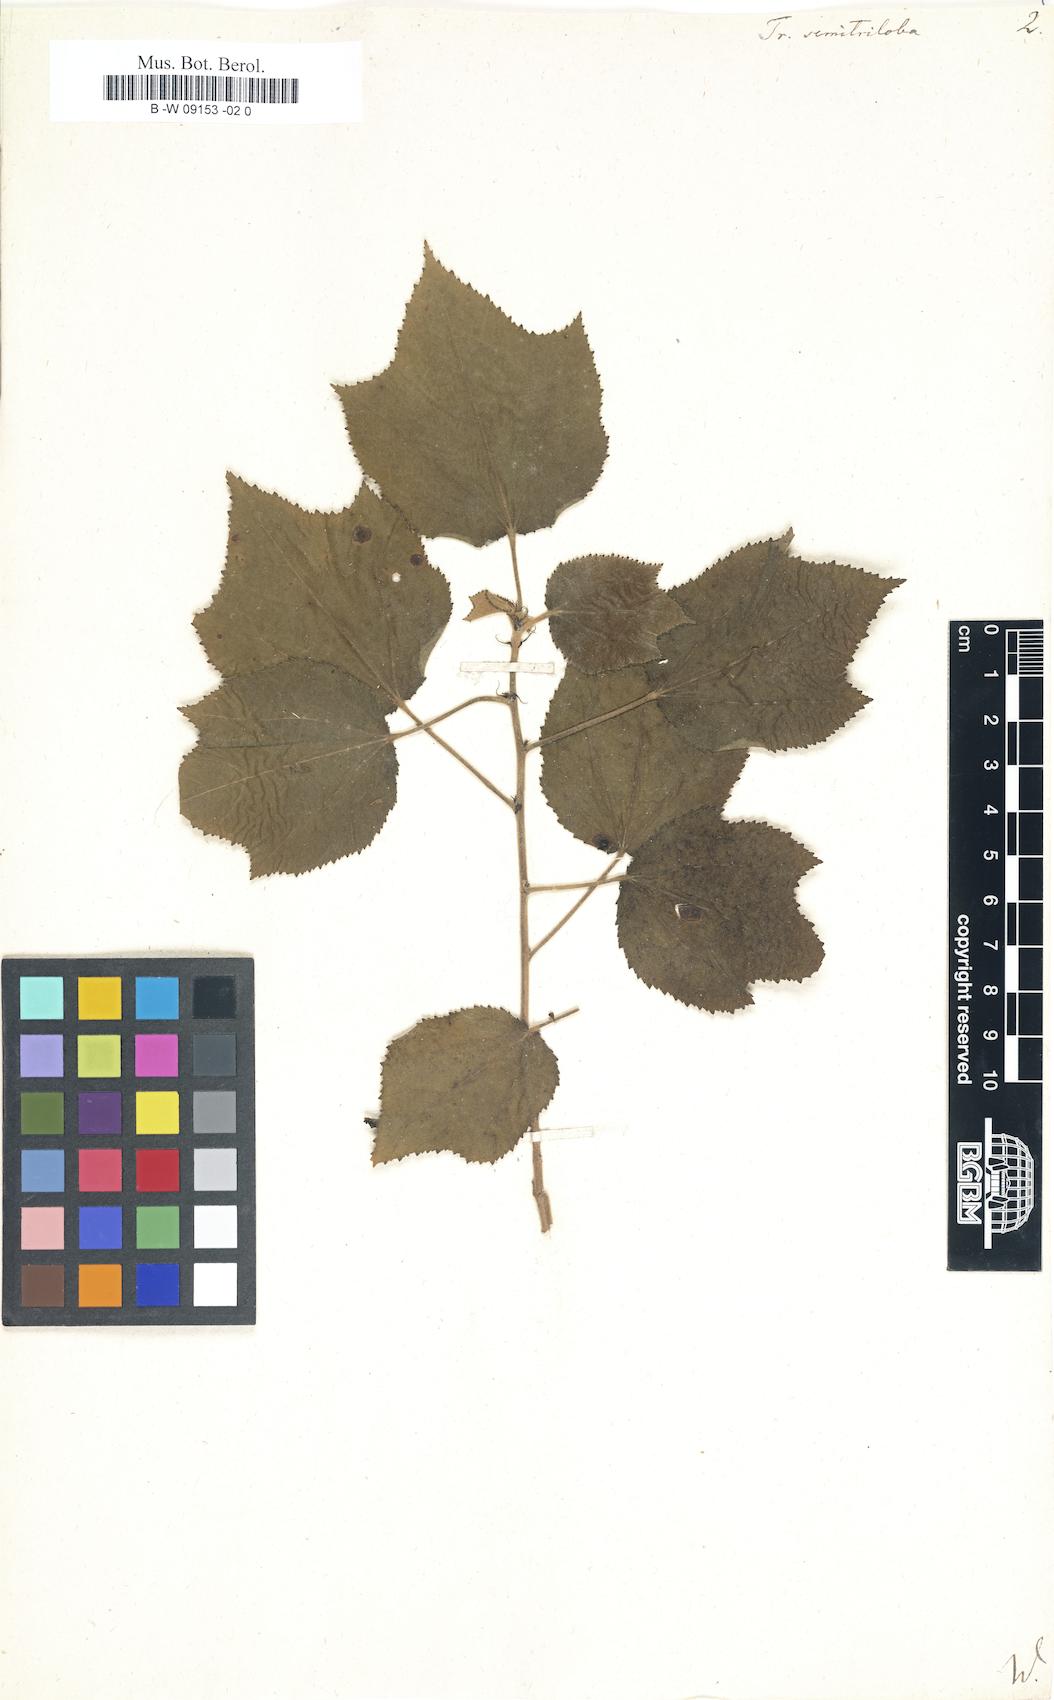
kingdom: Plantae
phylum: Tracheophyta
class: Magnoliopsida
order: Malvales
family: Malvaceae
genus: Triumfetta
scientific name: Triumfetta semitriloba
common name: Sacramento burbark
